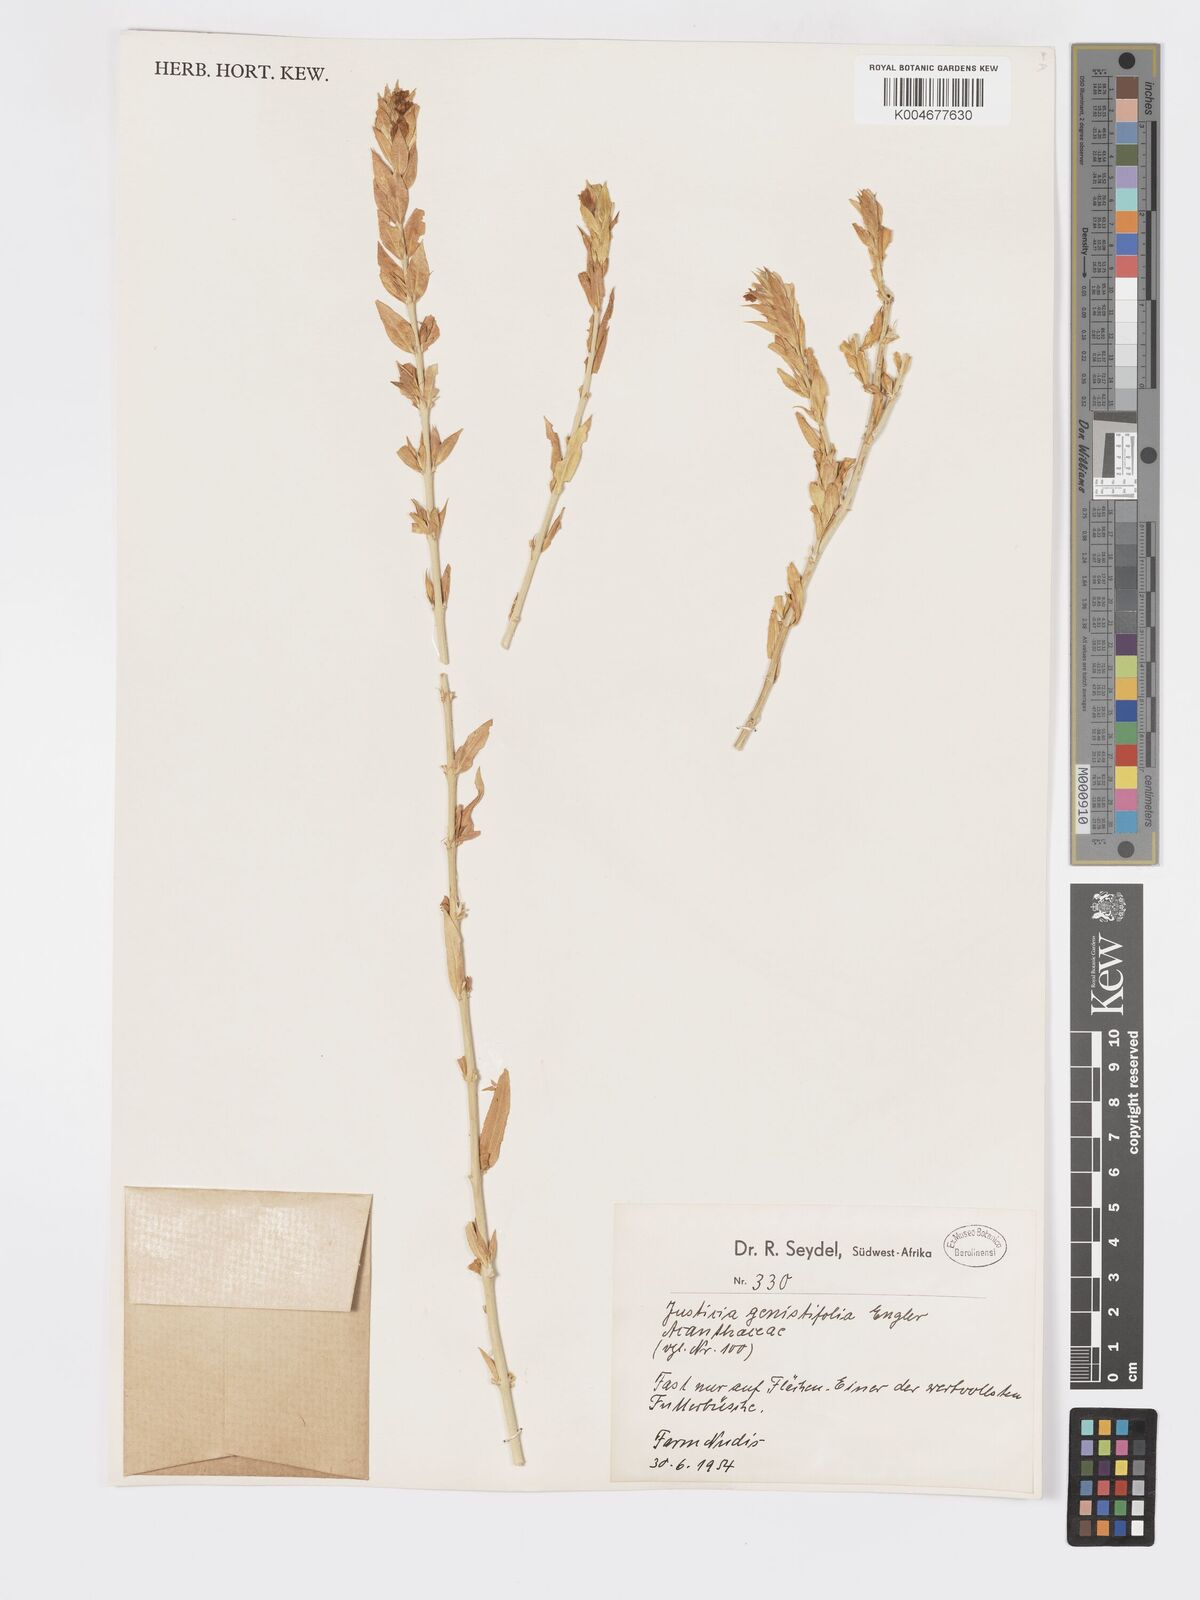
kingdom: Plantae
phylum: Tracheophyta
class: Magnoliopsida
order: Lamiales
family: Acanthaceae
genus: Pogonospermum
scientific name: Pogonospermum
